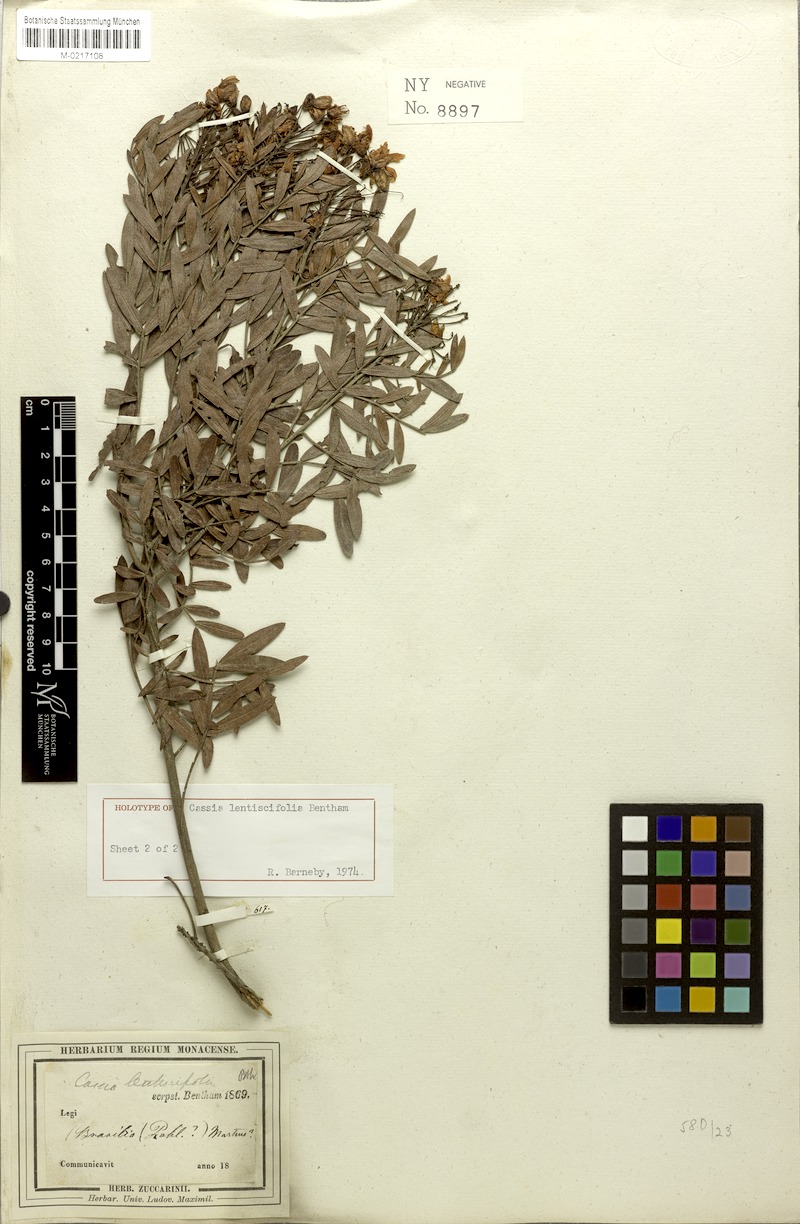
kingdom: Plantae
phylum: Tracheophyta
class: Magnoliopsida
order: Fabales
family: Fabaceae
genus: Chamaecrista
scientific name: Chamaecrista lentiscifolia
